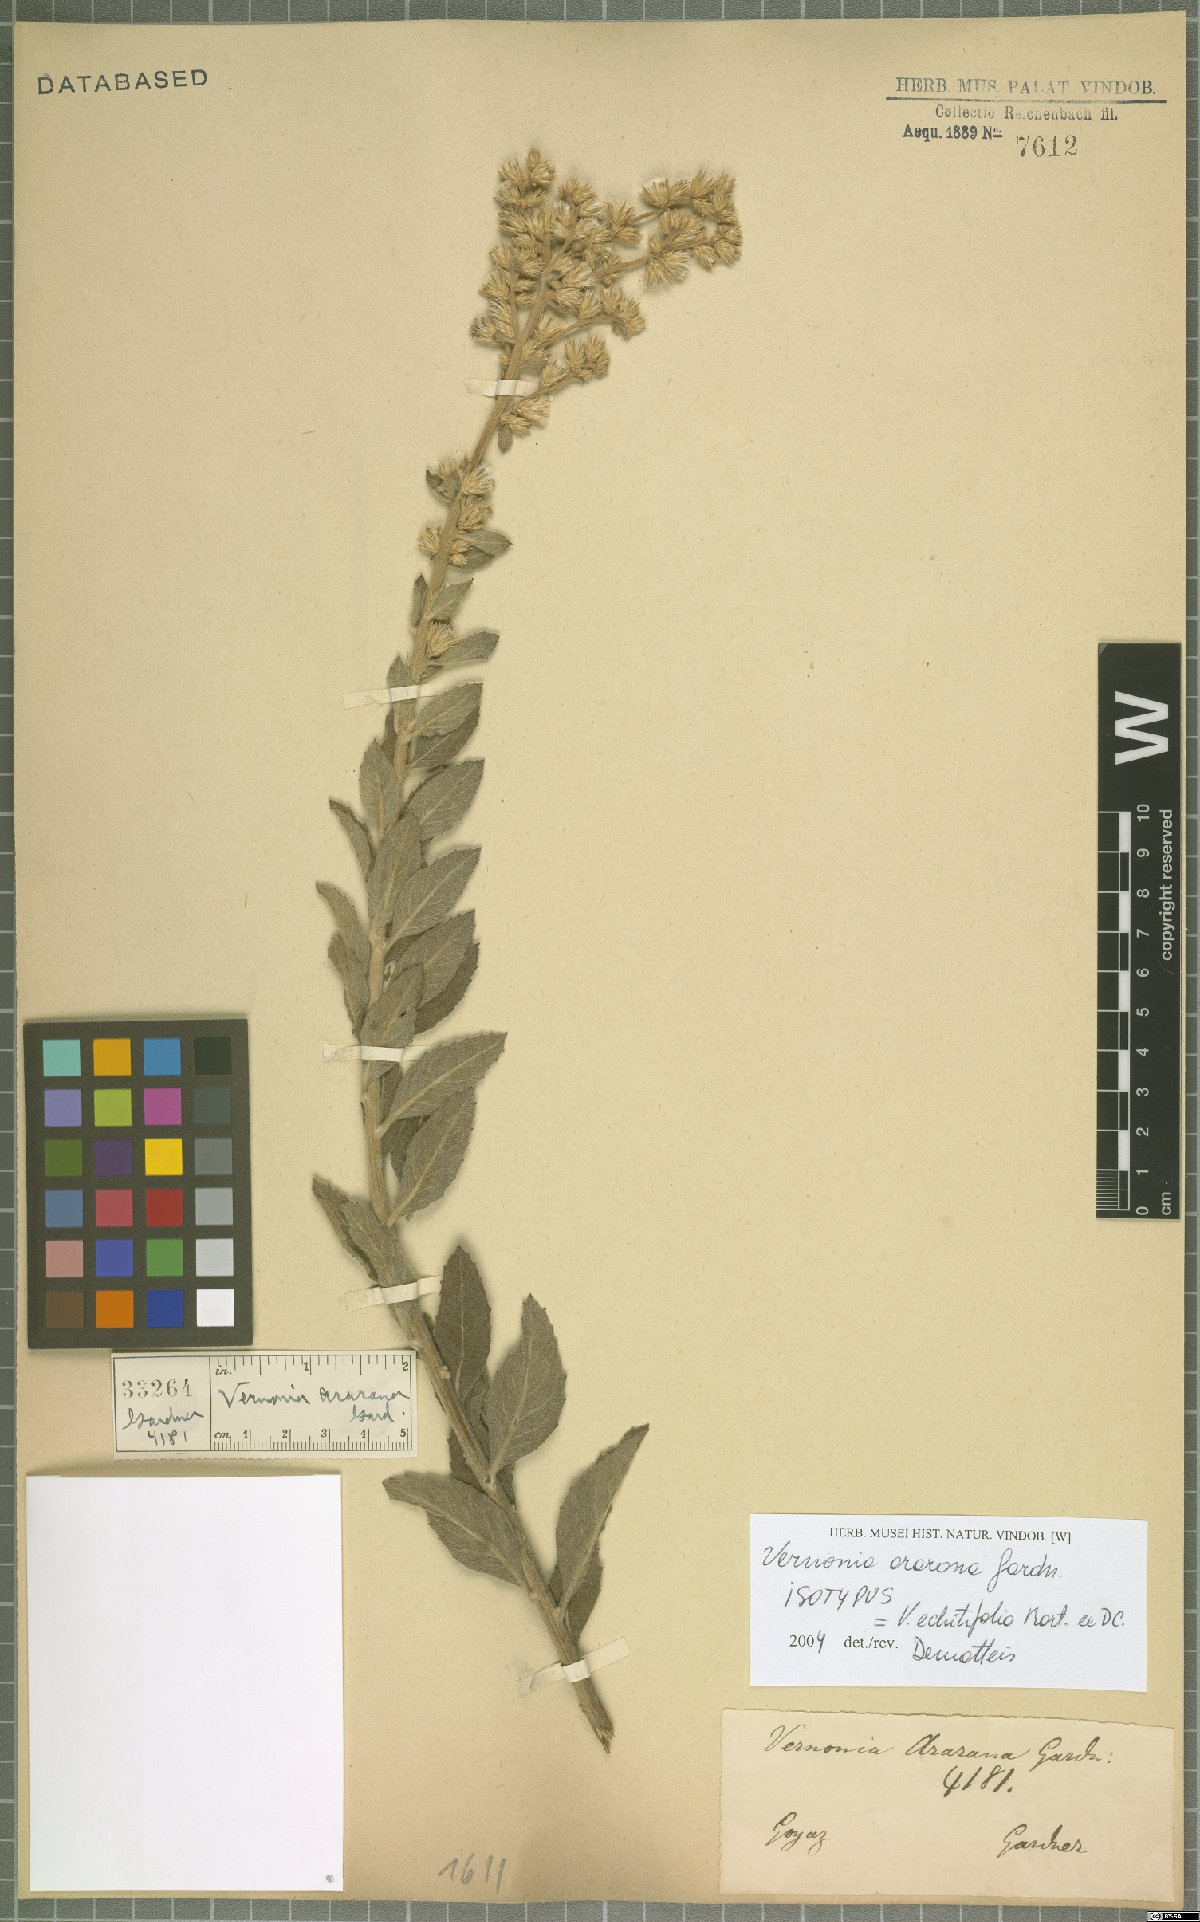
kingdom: Plantae
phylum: Tracheophyta
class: Magnoliopsida
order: Asterales
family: Asteraceae
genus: Acilepidopsis
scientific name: Acilepidopsis echitifolia
